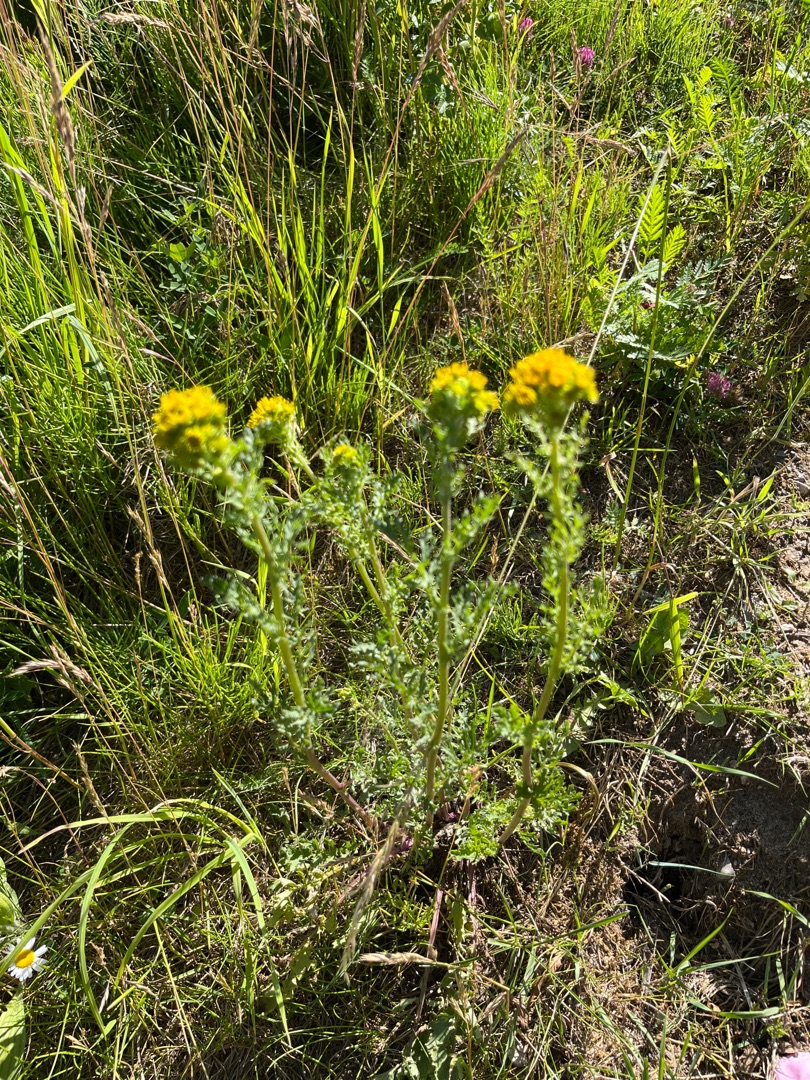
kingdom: Plantae
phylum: Tracheophyta
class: Magnoliopsida
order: Asterales
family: Asteraceae
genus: Jacobaea
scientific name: Jacobaea vulgaris
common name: Eng-brandbæger
